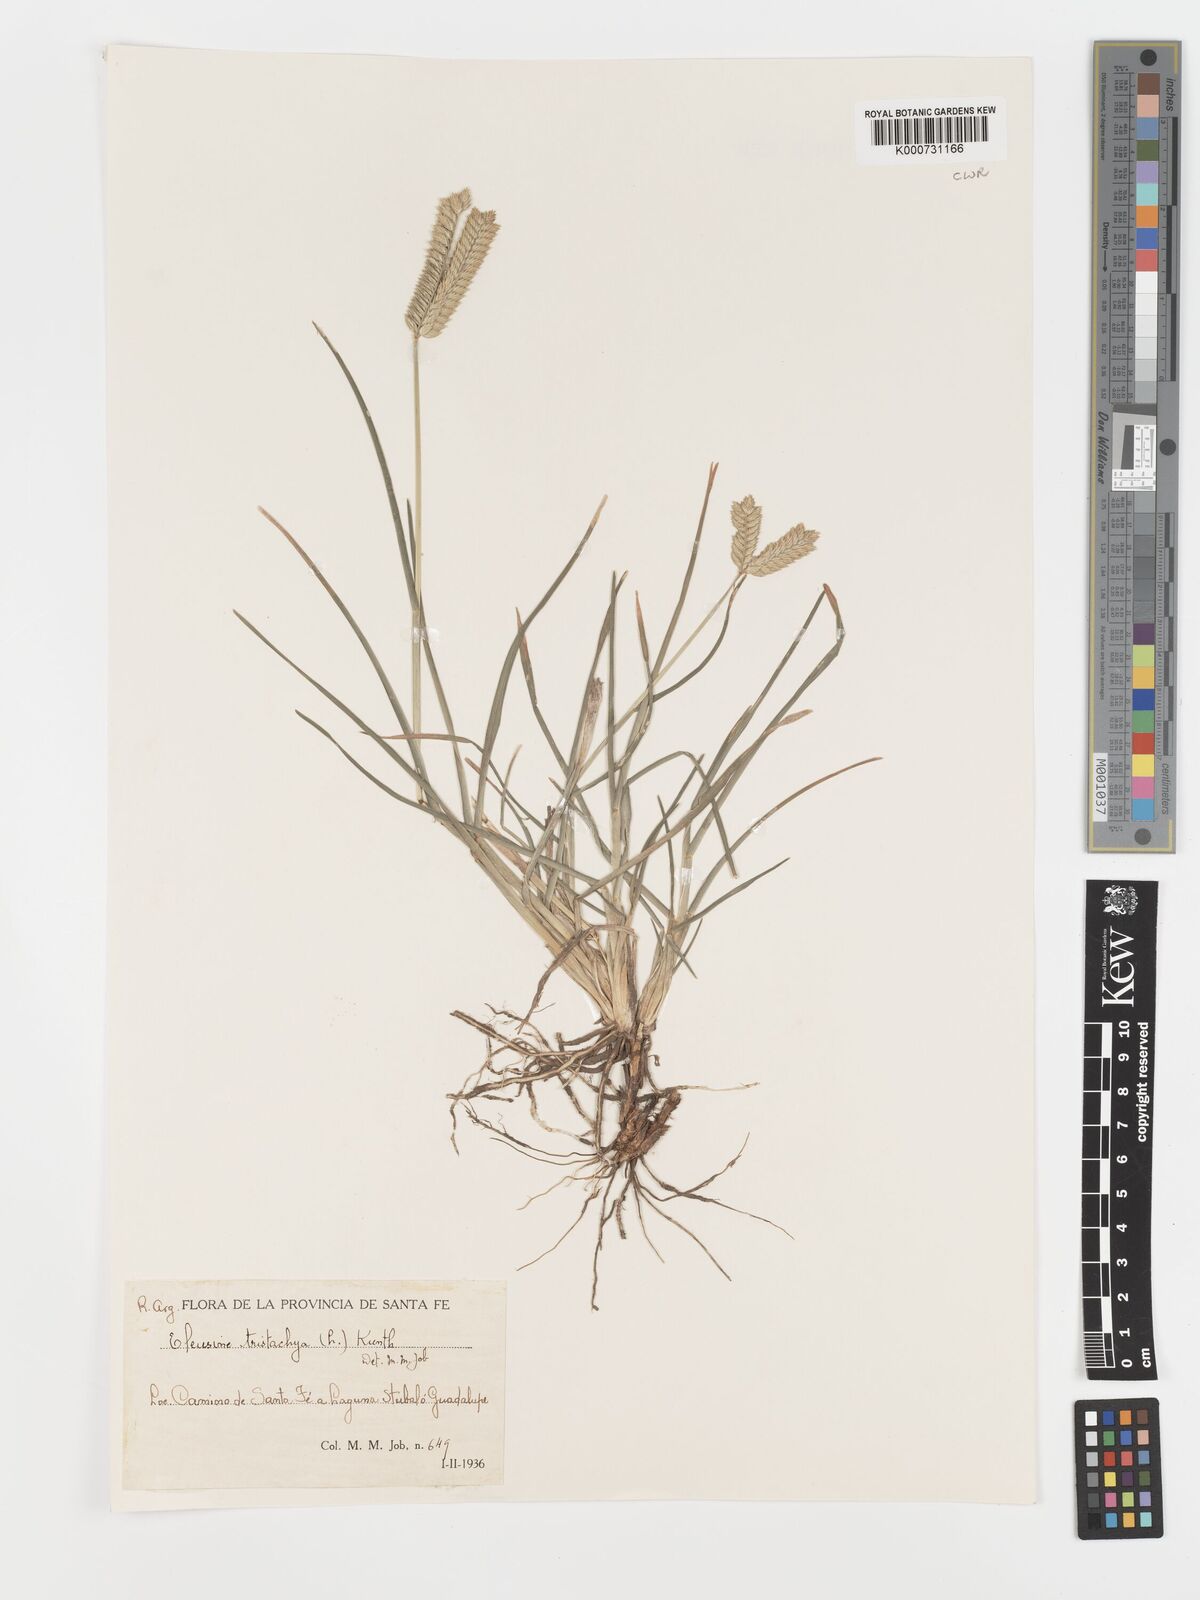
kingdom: Plantae
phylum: Tracheophyta
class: Liliopsida
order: Poales
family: Poaceae
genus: Eleusine
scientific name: Eleusine tristachya
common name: American yard-grass
